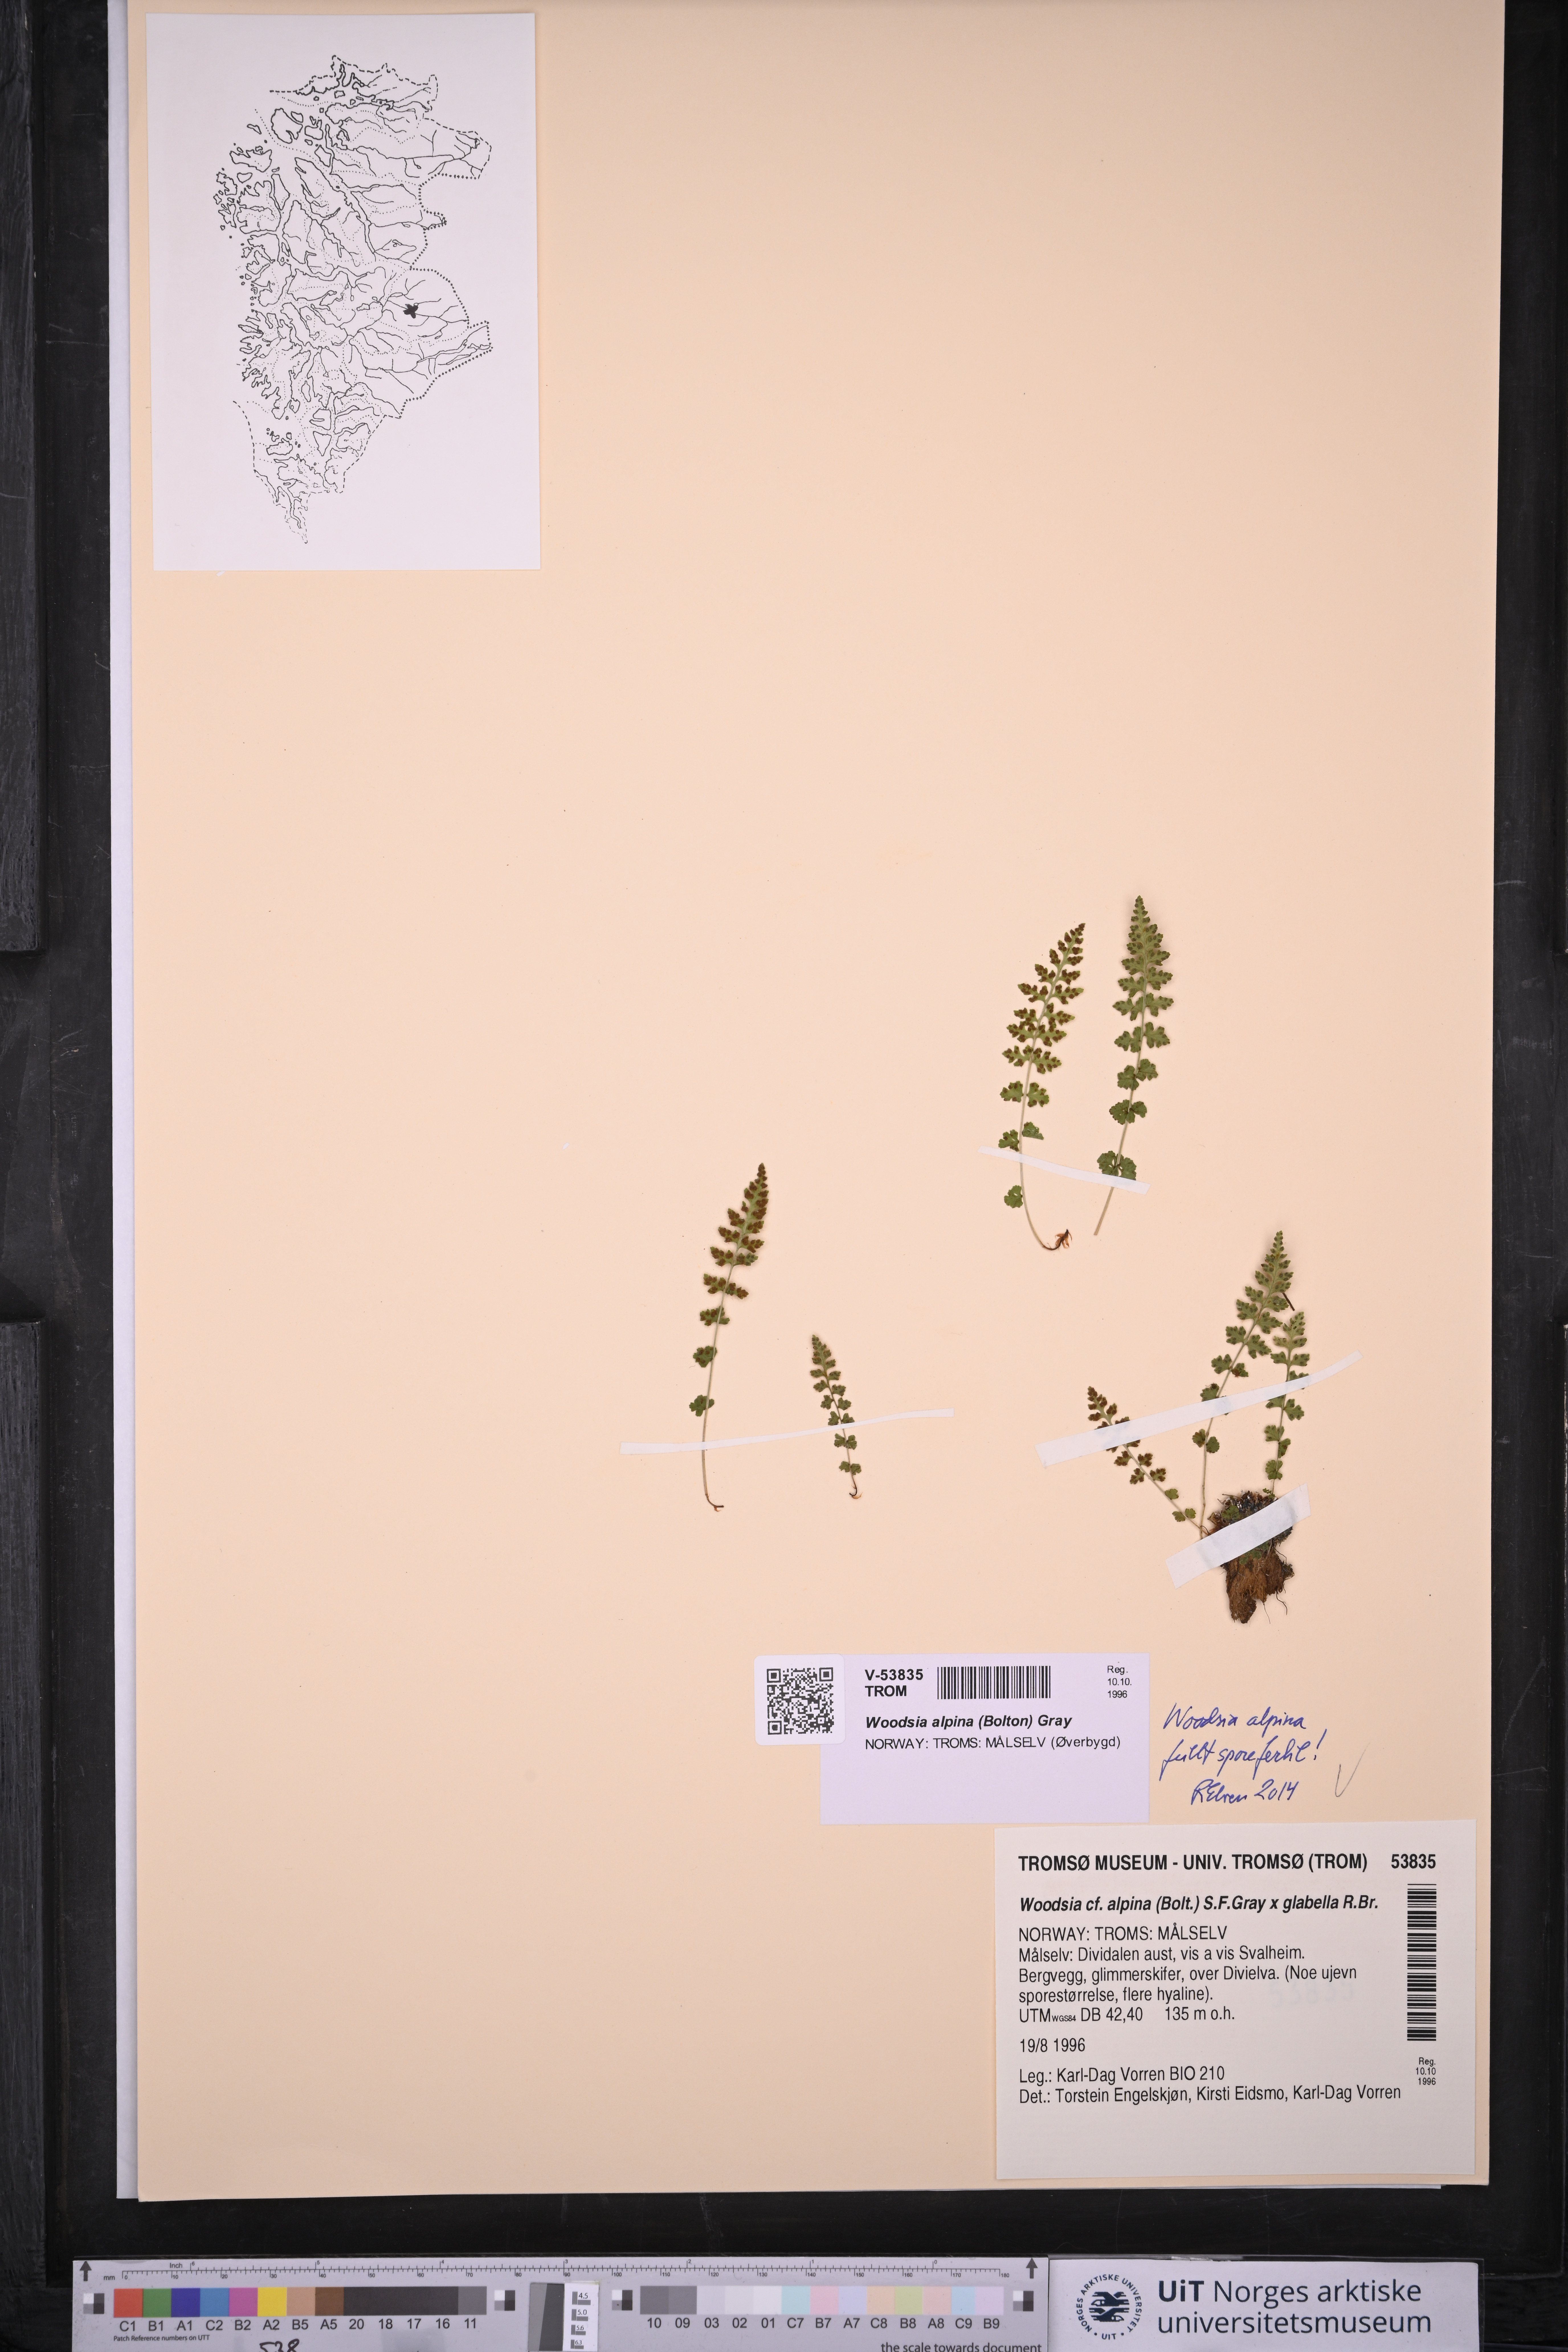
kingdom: Plantae
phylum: Tracheophyta
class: Polypodiopsida
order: Polypodiales
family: Woodsiaceae
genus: Woodsia
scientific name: Woodsia alpina
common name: Alpine woodsia
